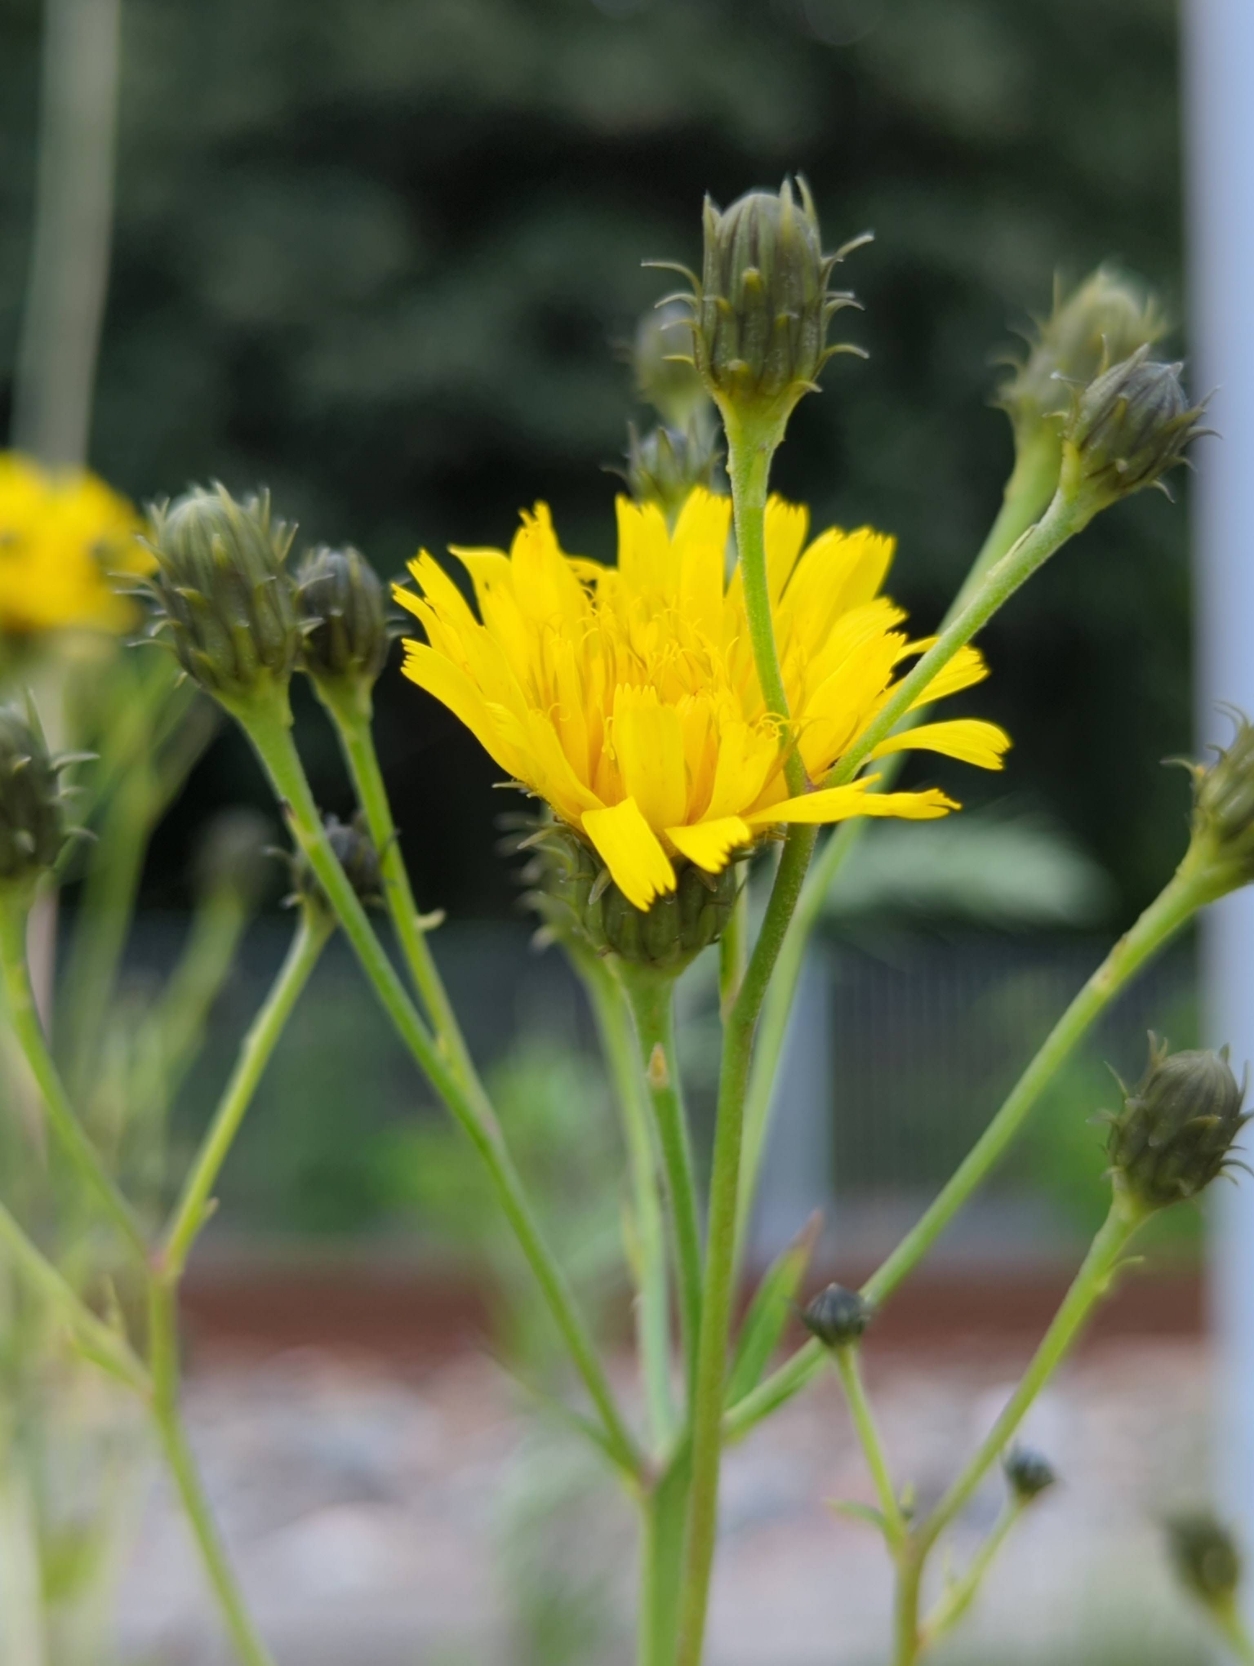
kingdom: Plantae
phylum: Tracheophyta
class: Magnoliopsida
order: Asterales
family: Asteraceae
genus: Hieracium
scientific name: Hieracium umbellatum
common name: Smalbladet høgeurt
